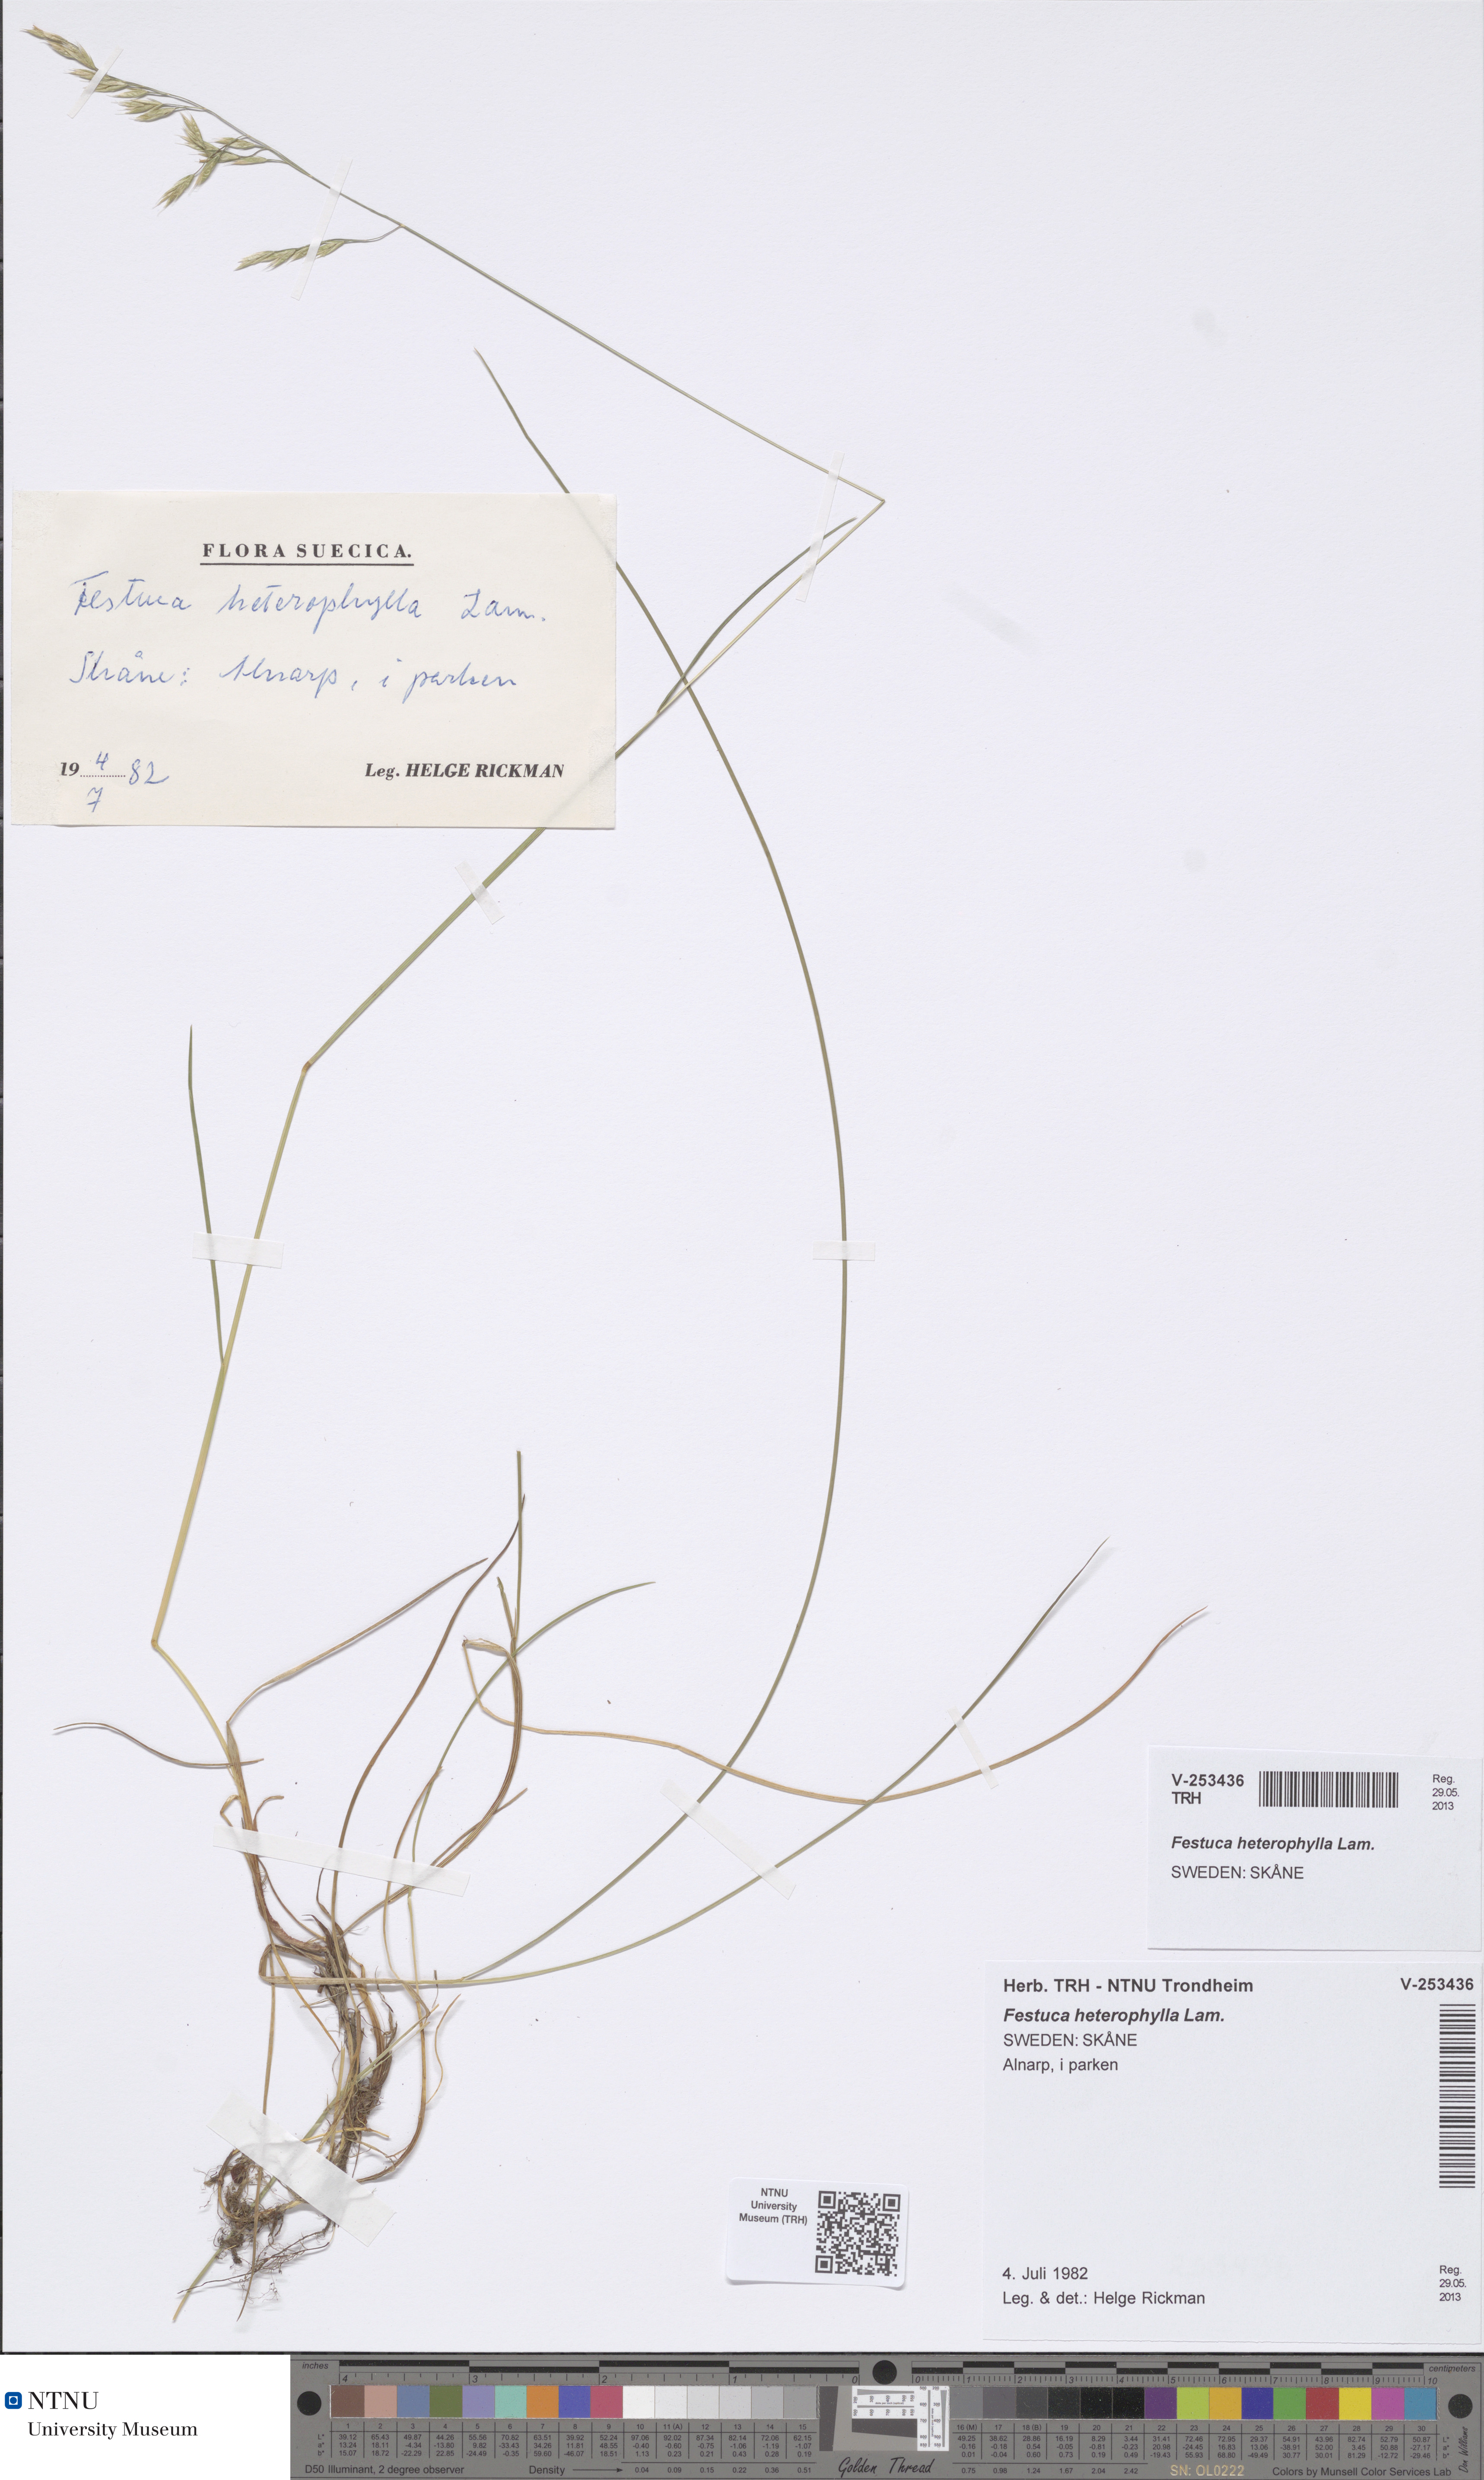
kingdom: Plantae
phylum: Tracheophyta
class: Liliopsida
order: Poales
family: Poaceae
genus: Festuca
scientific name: Festuca heterophylla
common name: Various-leaved fescue
